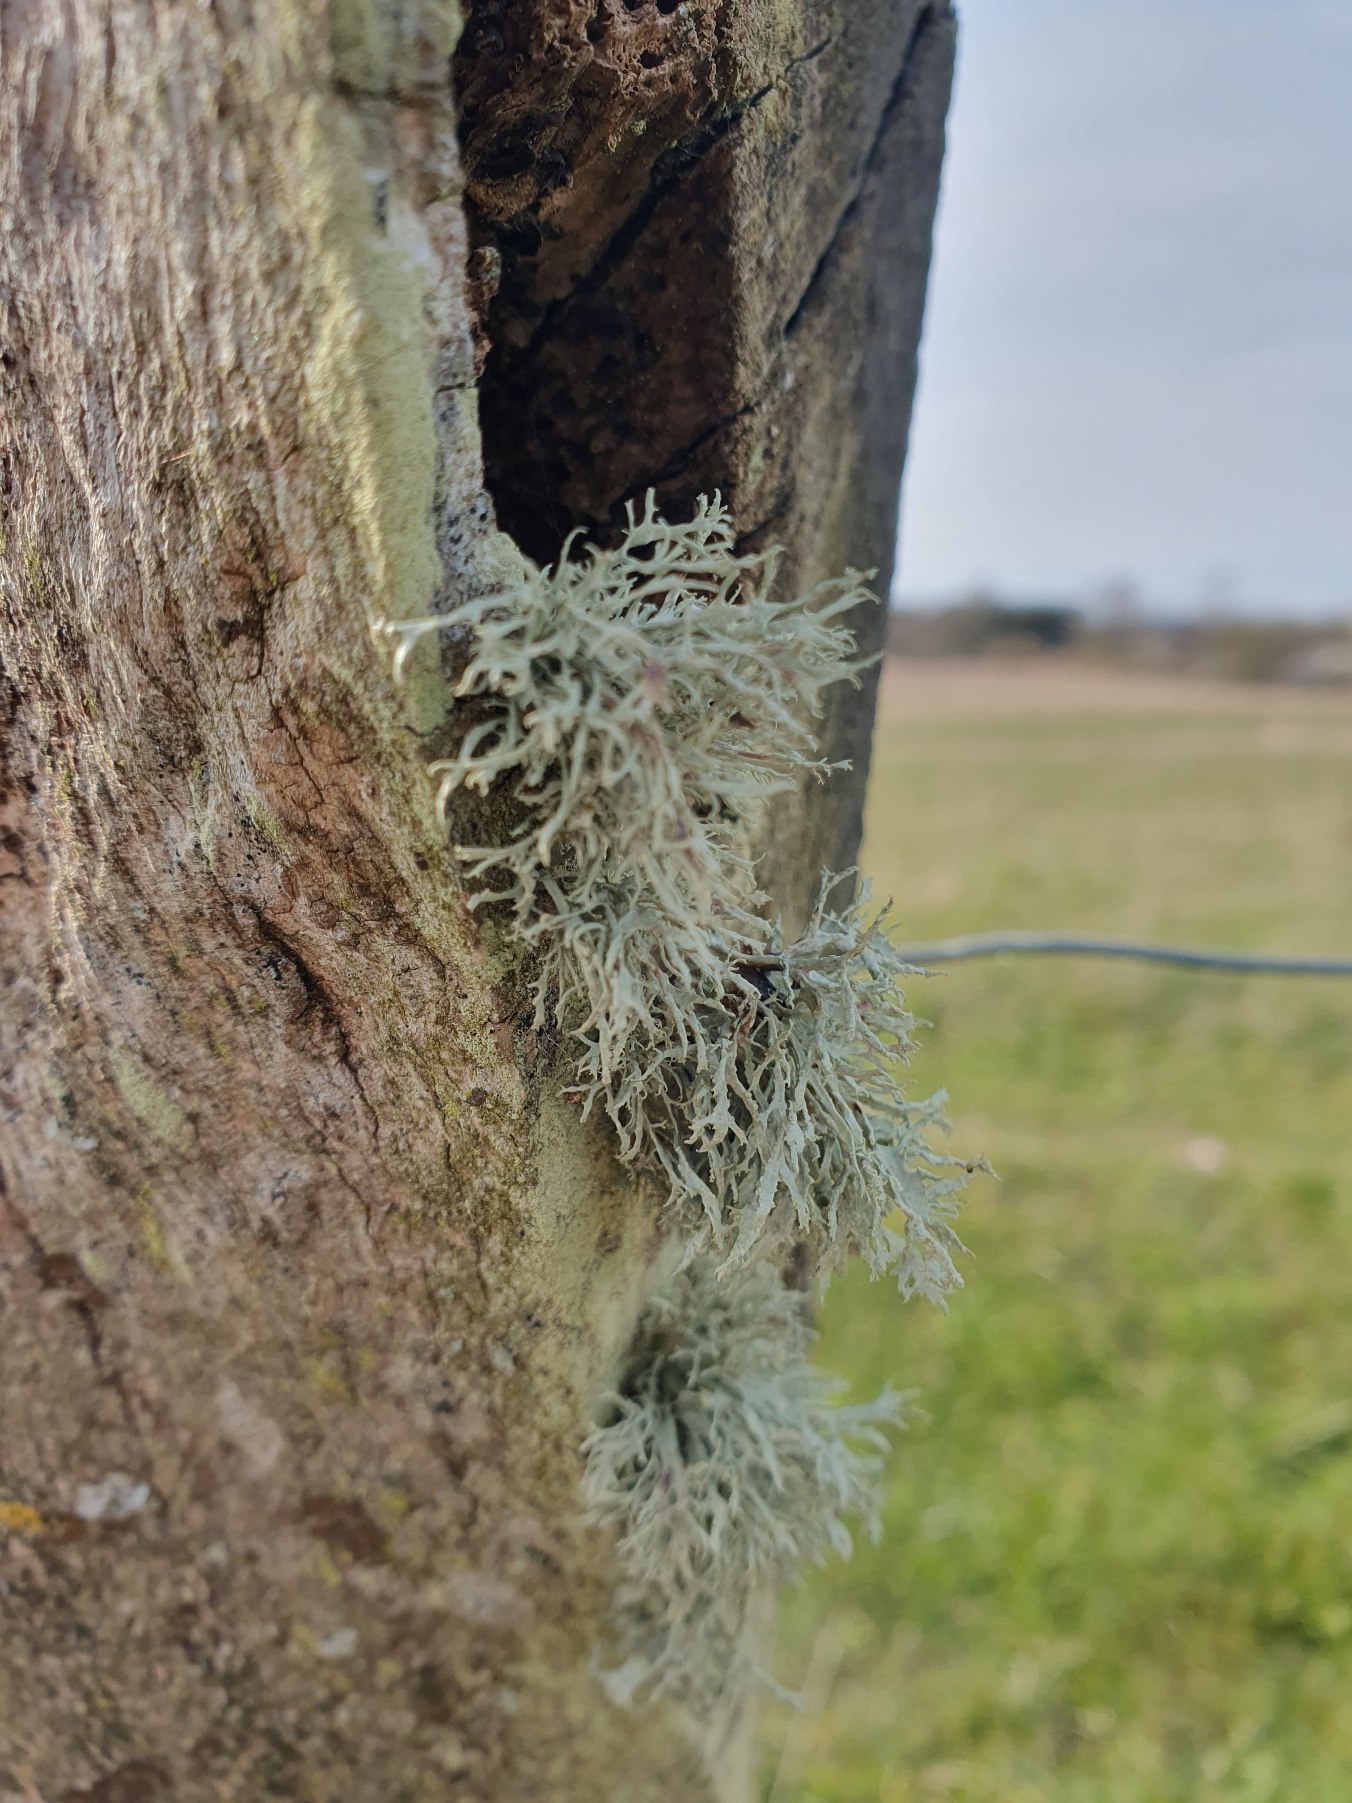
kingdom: Fungi
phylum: Ascomycota
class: Lecanoromycetes
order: Lecanorales
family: Ramalinaceae
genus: Ramalina
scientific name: Ramalina farinacea
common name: Melet grenlav
